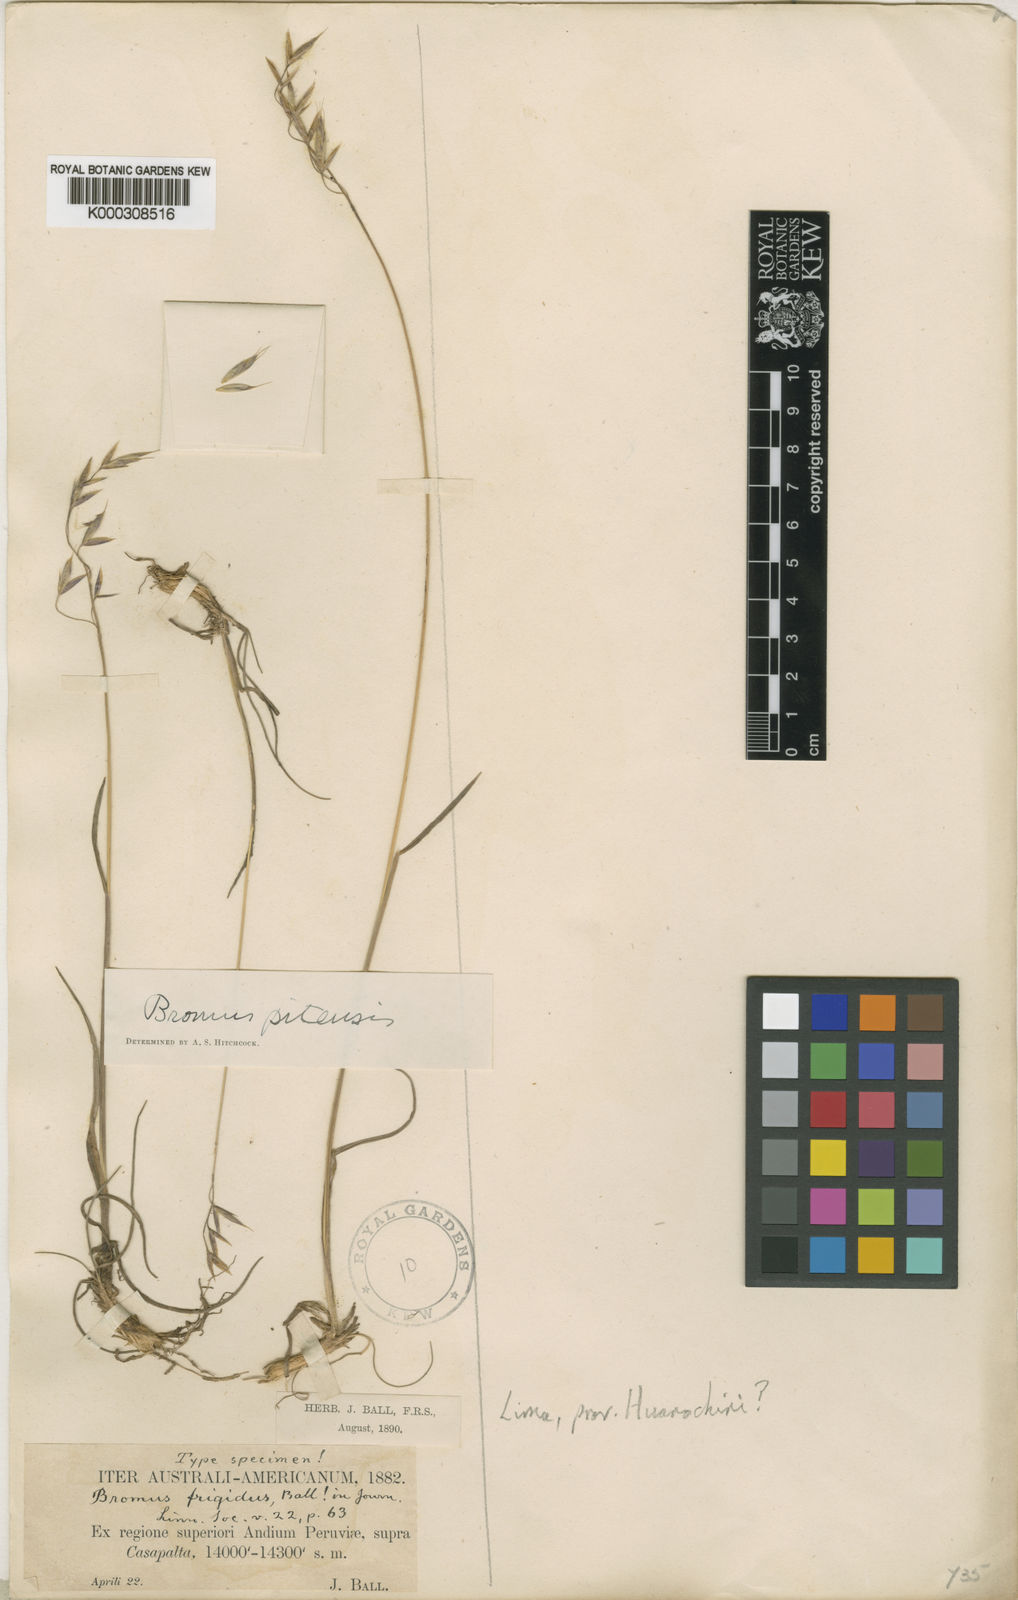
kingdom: Plantae
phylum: Tracheophyta
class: Liliopsida
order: Poales
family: Poaceae
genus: Bromus
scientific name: Bromus modestus
